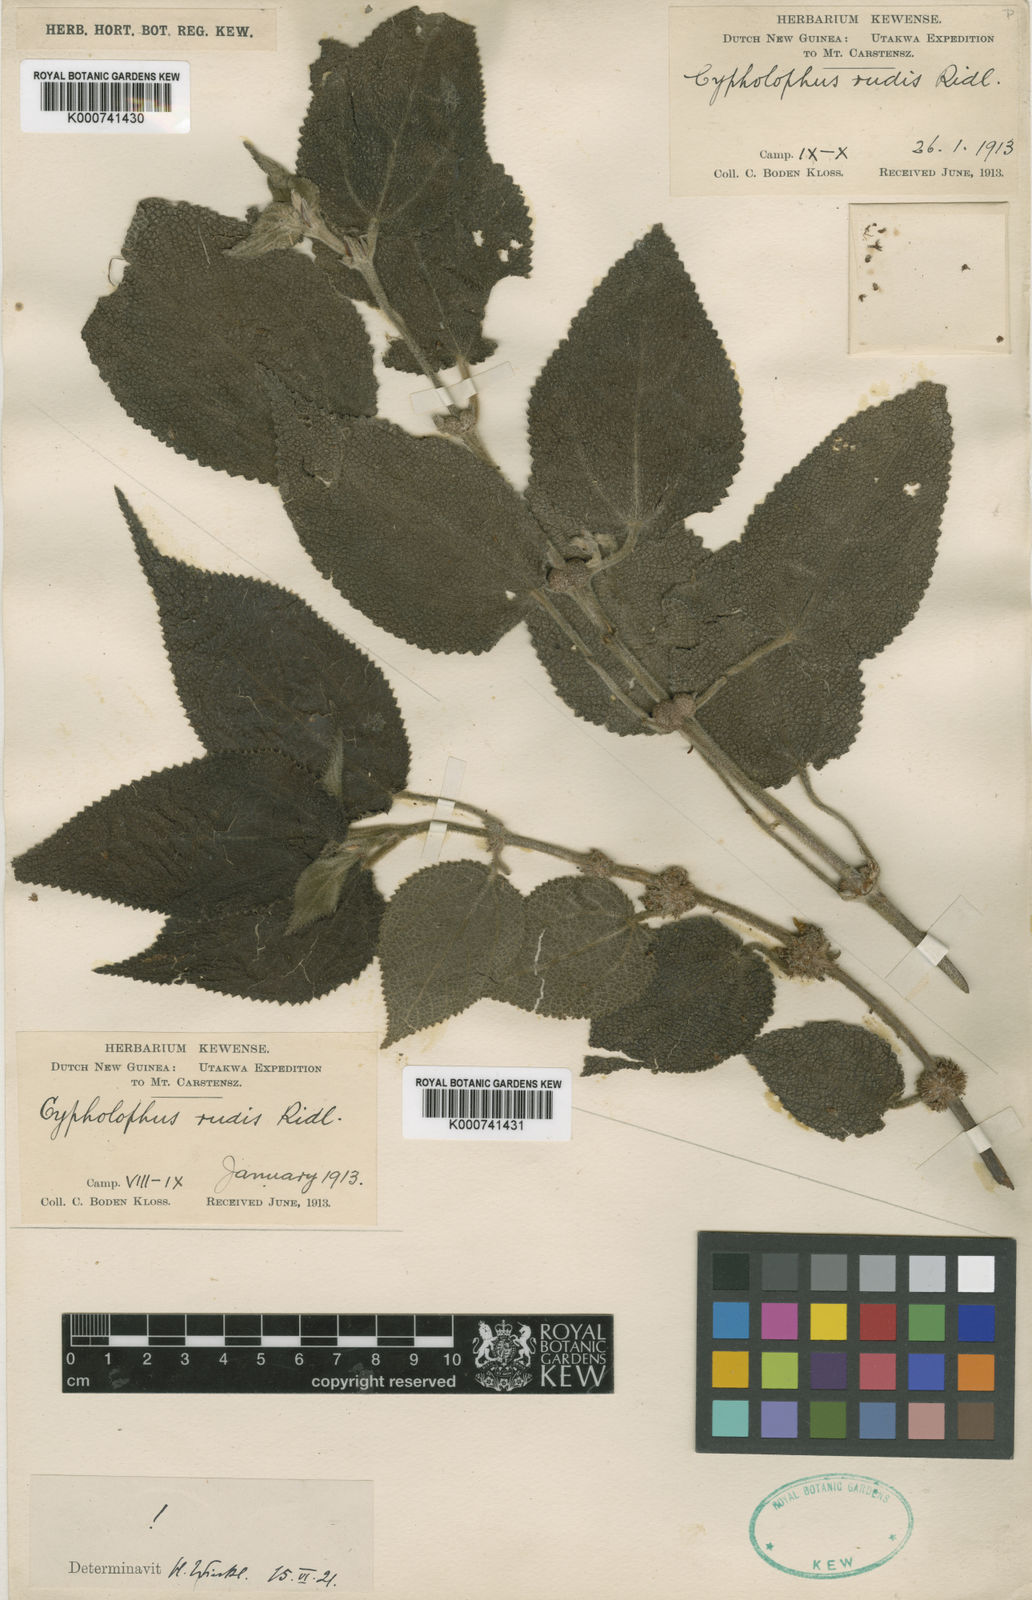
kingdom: Plantae
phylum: Tracheophyta
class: Magnoliopsida
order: Rosales
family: Urticaceae
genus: Cypholophus
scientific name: Cypholophus rudis
